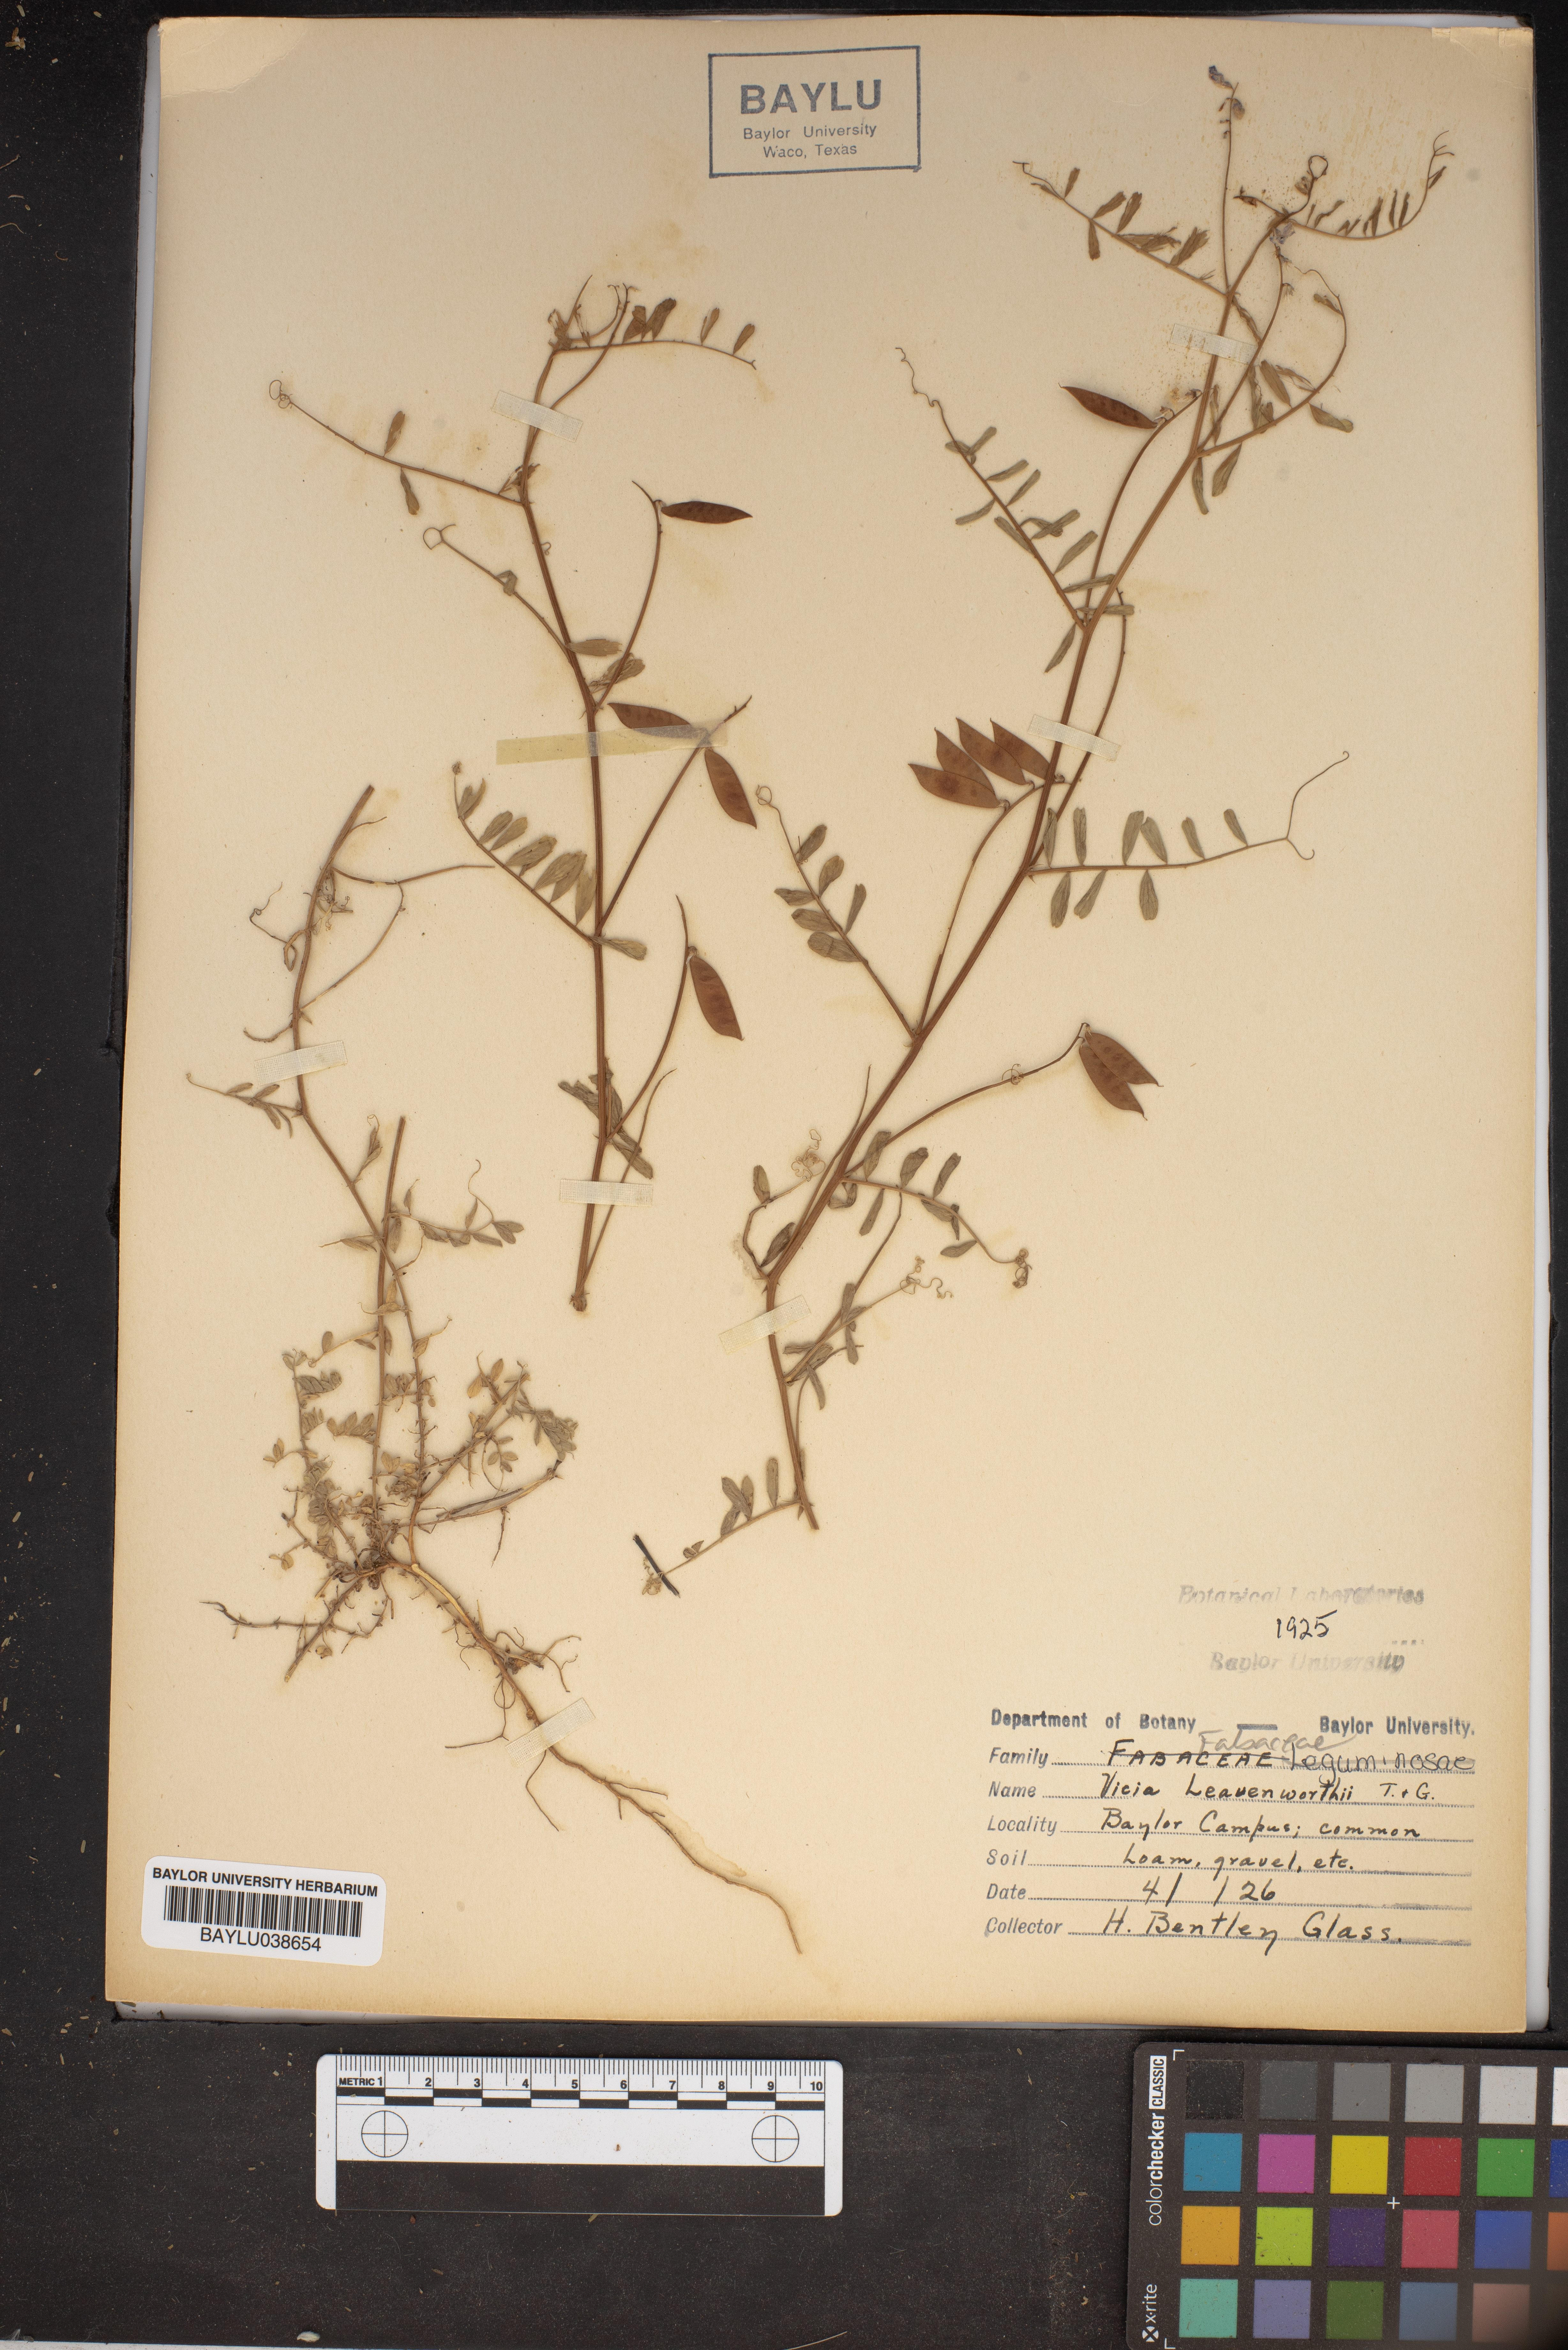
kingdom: Plantae
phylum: Tracheophyta
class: Magnoliopsida
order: Fabales
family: Fabaceae
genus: Vicia
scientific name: Vicia ludoviciana
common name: Louisiana vetch
